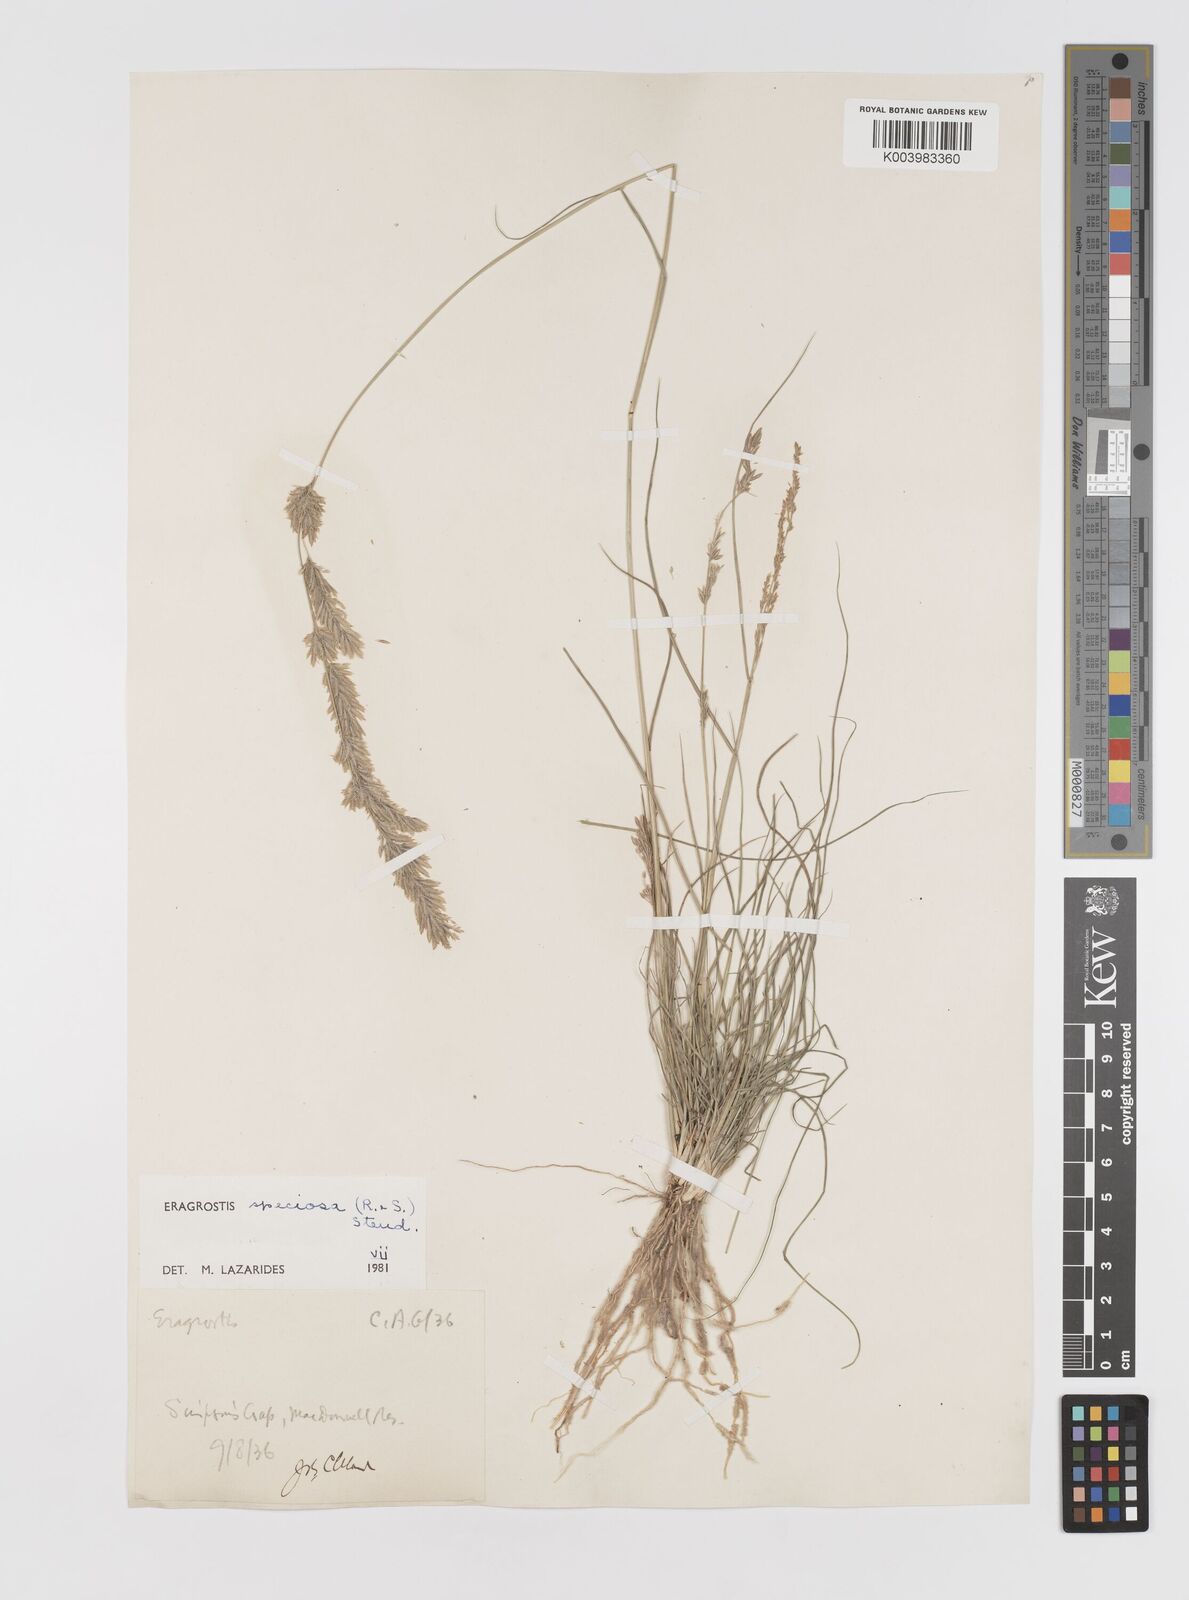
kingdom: Plantae
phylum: Tracheophyta
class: Liliopsida
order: Poales
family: Poaceae
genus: Eragrostis
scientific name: Eragrostis speciosa
